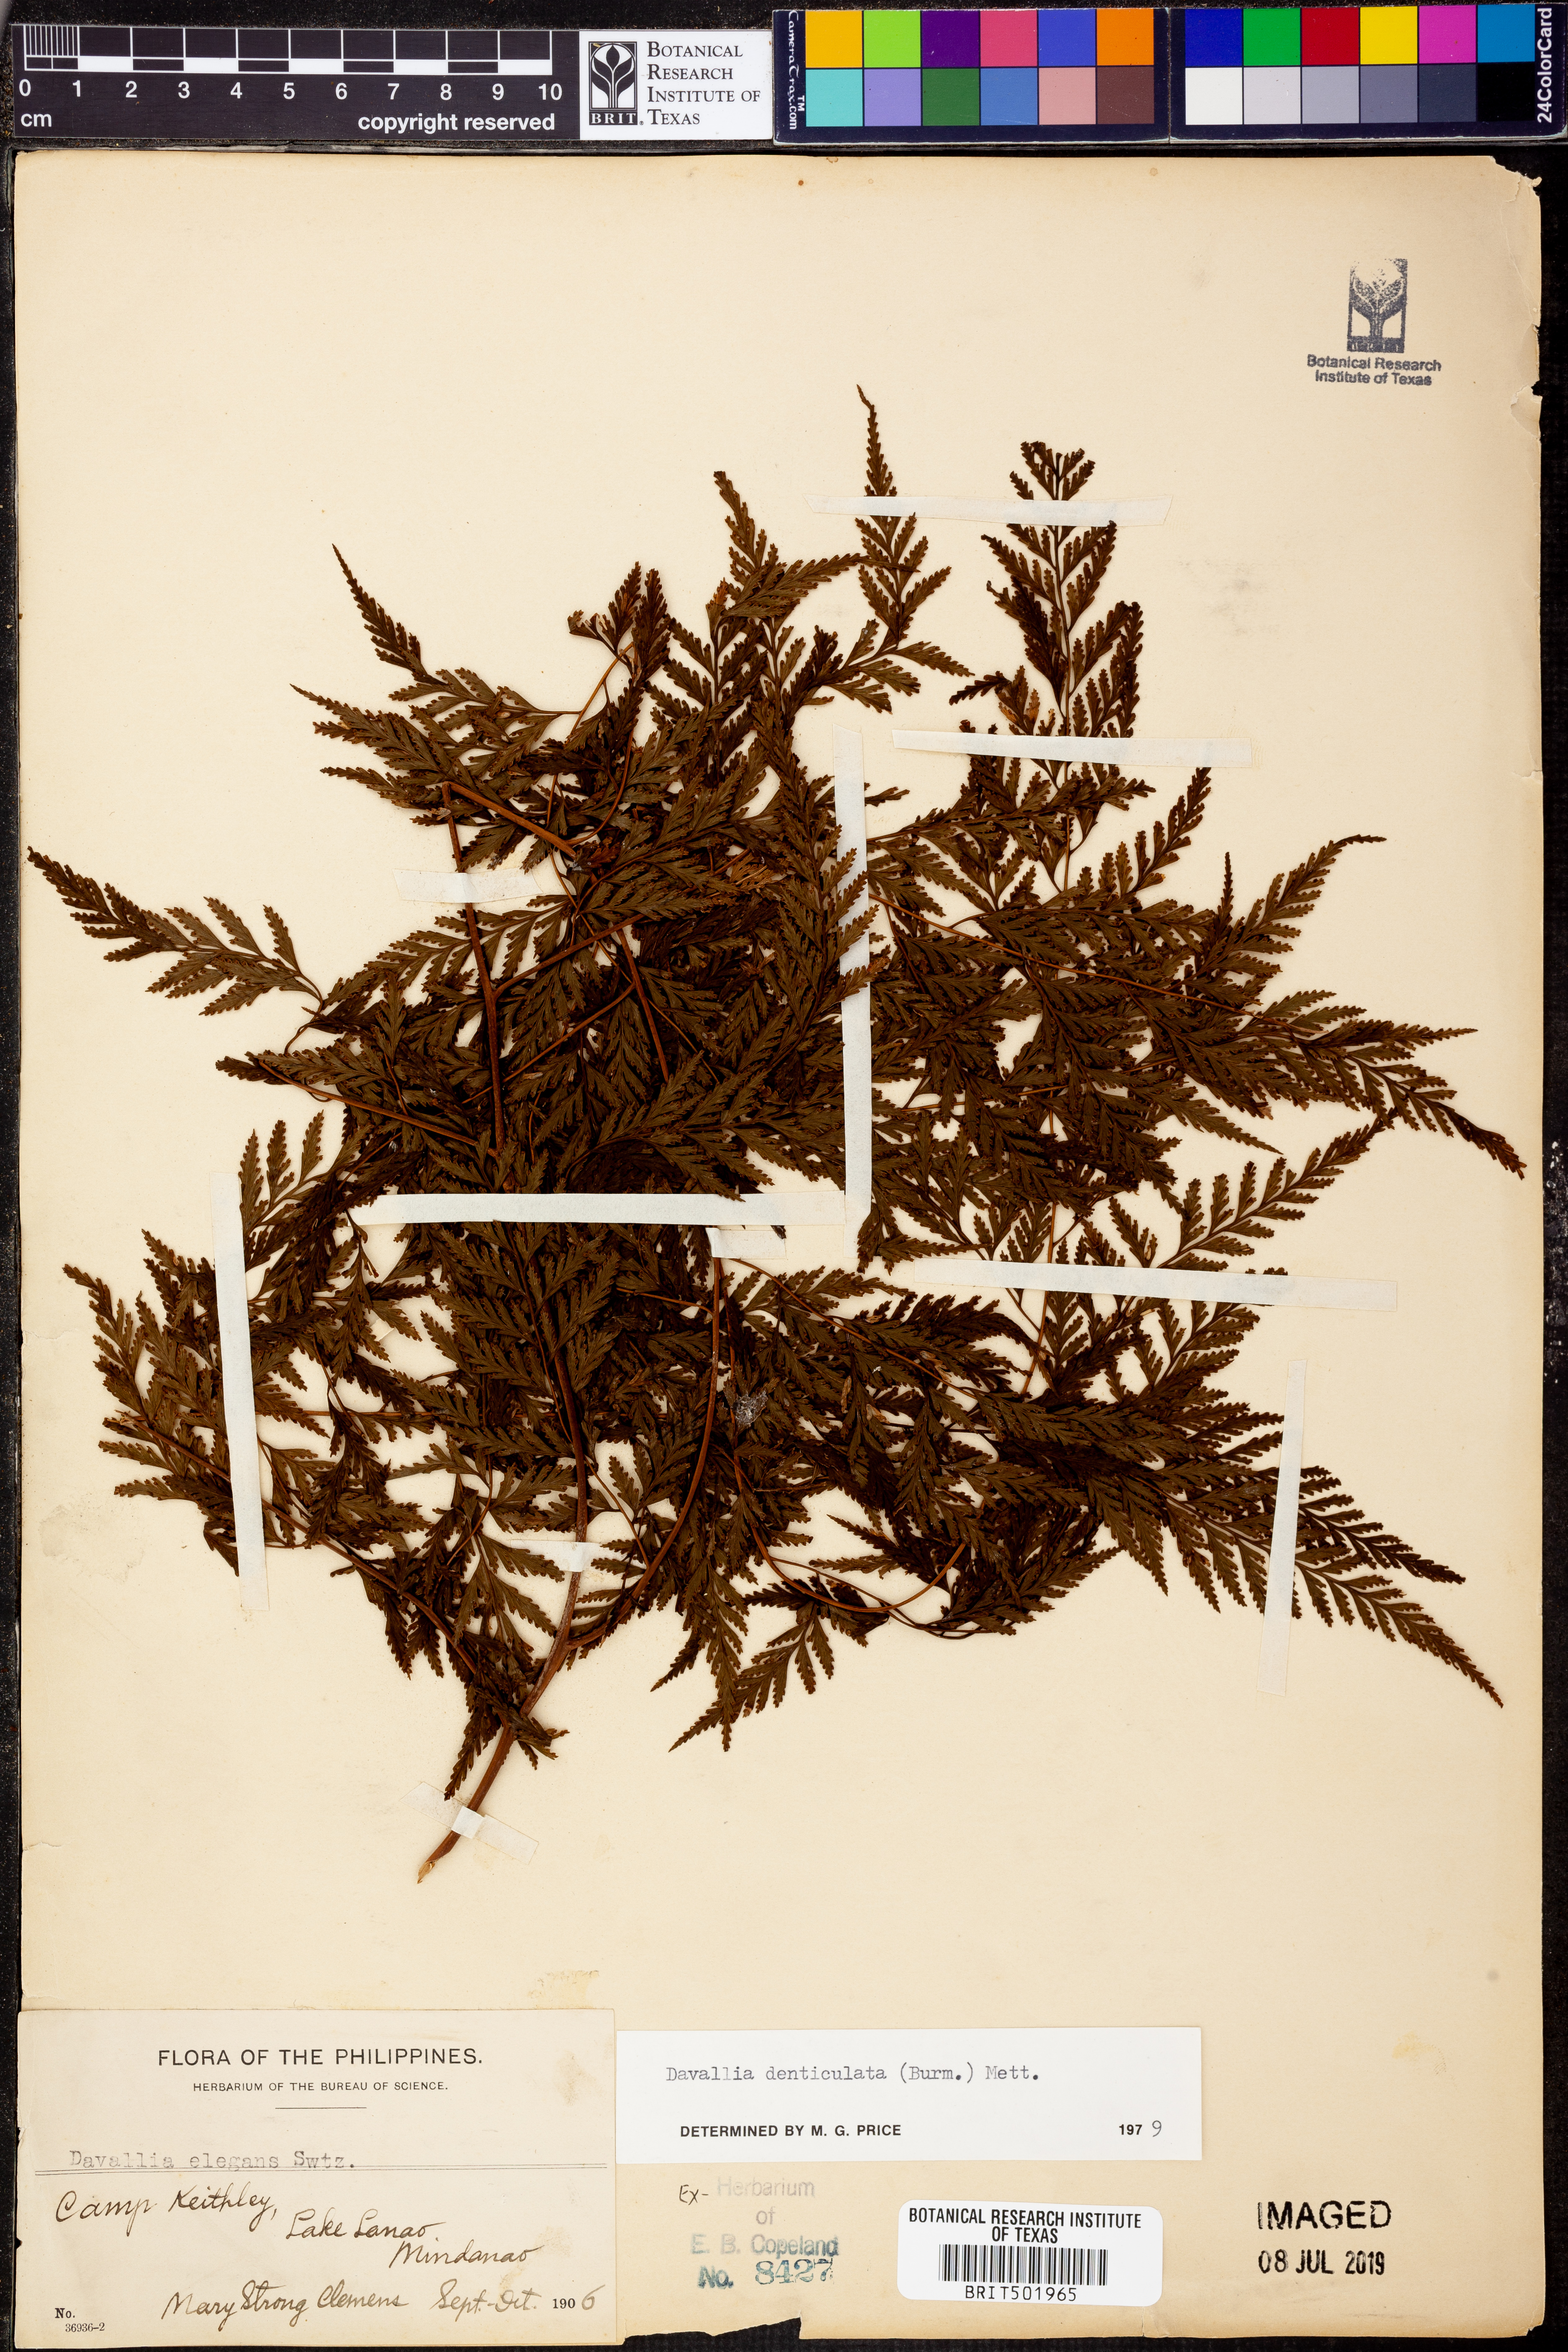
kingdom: Plantae
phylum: Tracheophyta
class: Polypodiopsida
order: Polypodiales
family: Davalliaceae
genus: Davallia
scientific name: Davallia denticulata
